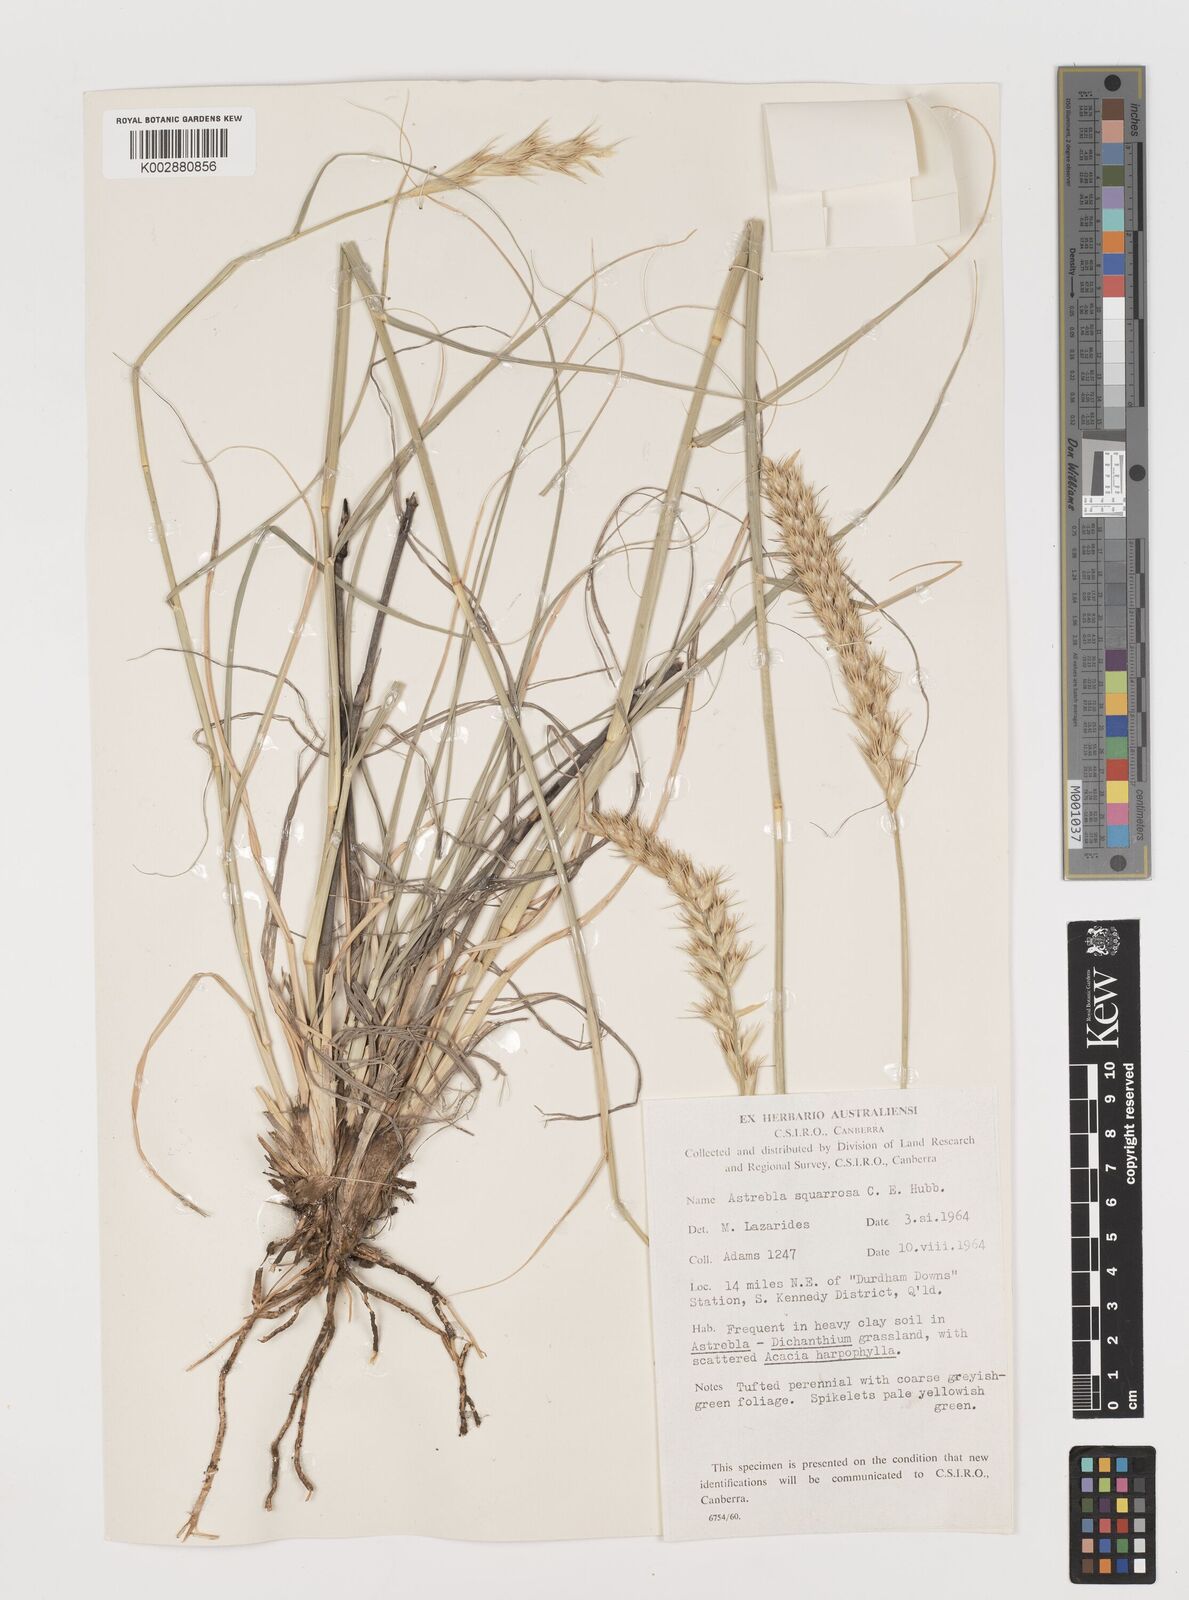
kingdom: Plantae
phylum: Tracheophyta
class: Liliopsida
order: Poales
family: Poaceae
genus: Astrebla
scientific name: Astrebla squarrosa
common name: Wheat-ear mitchell grass
